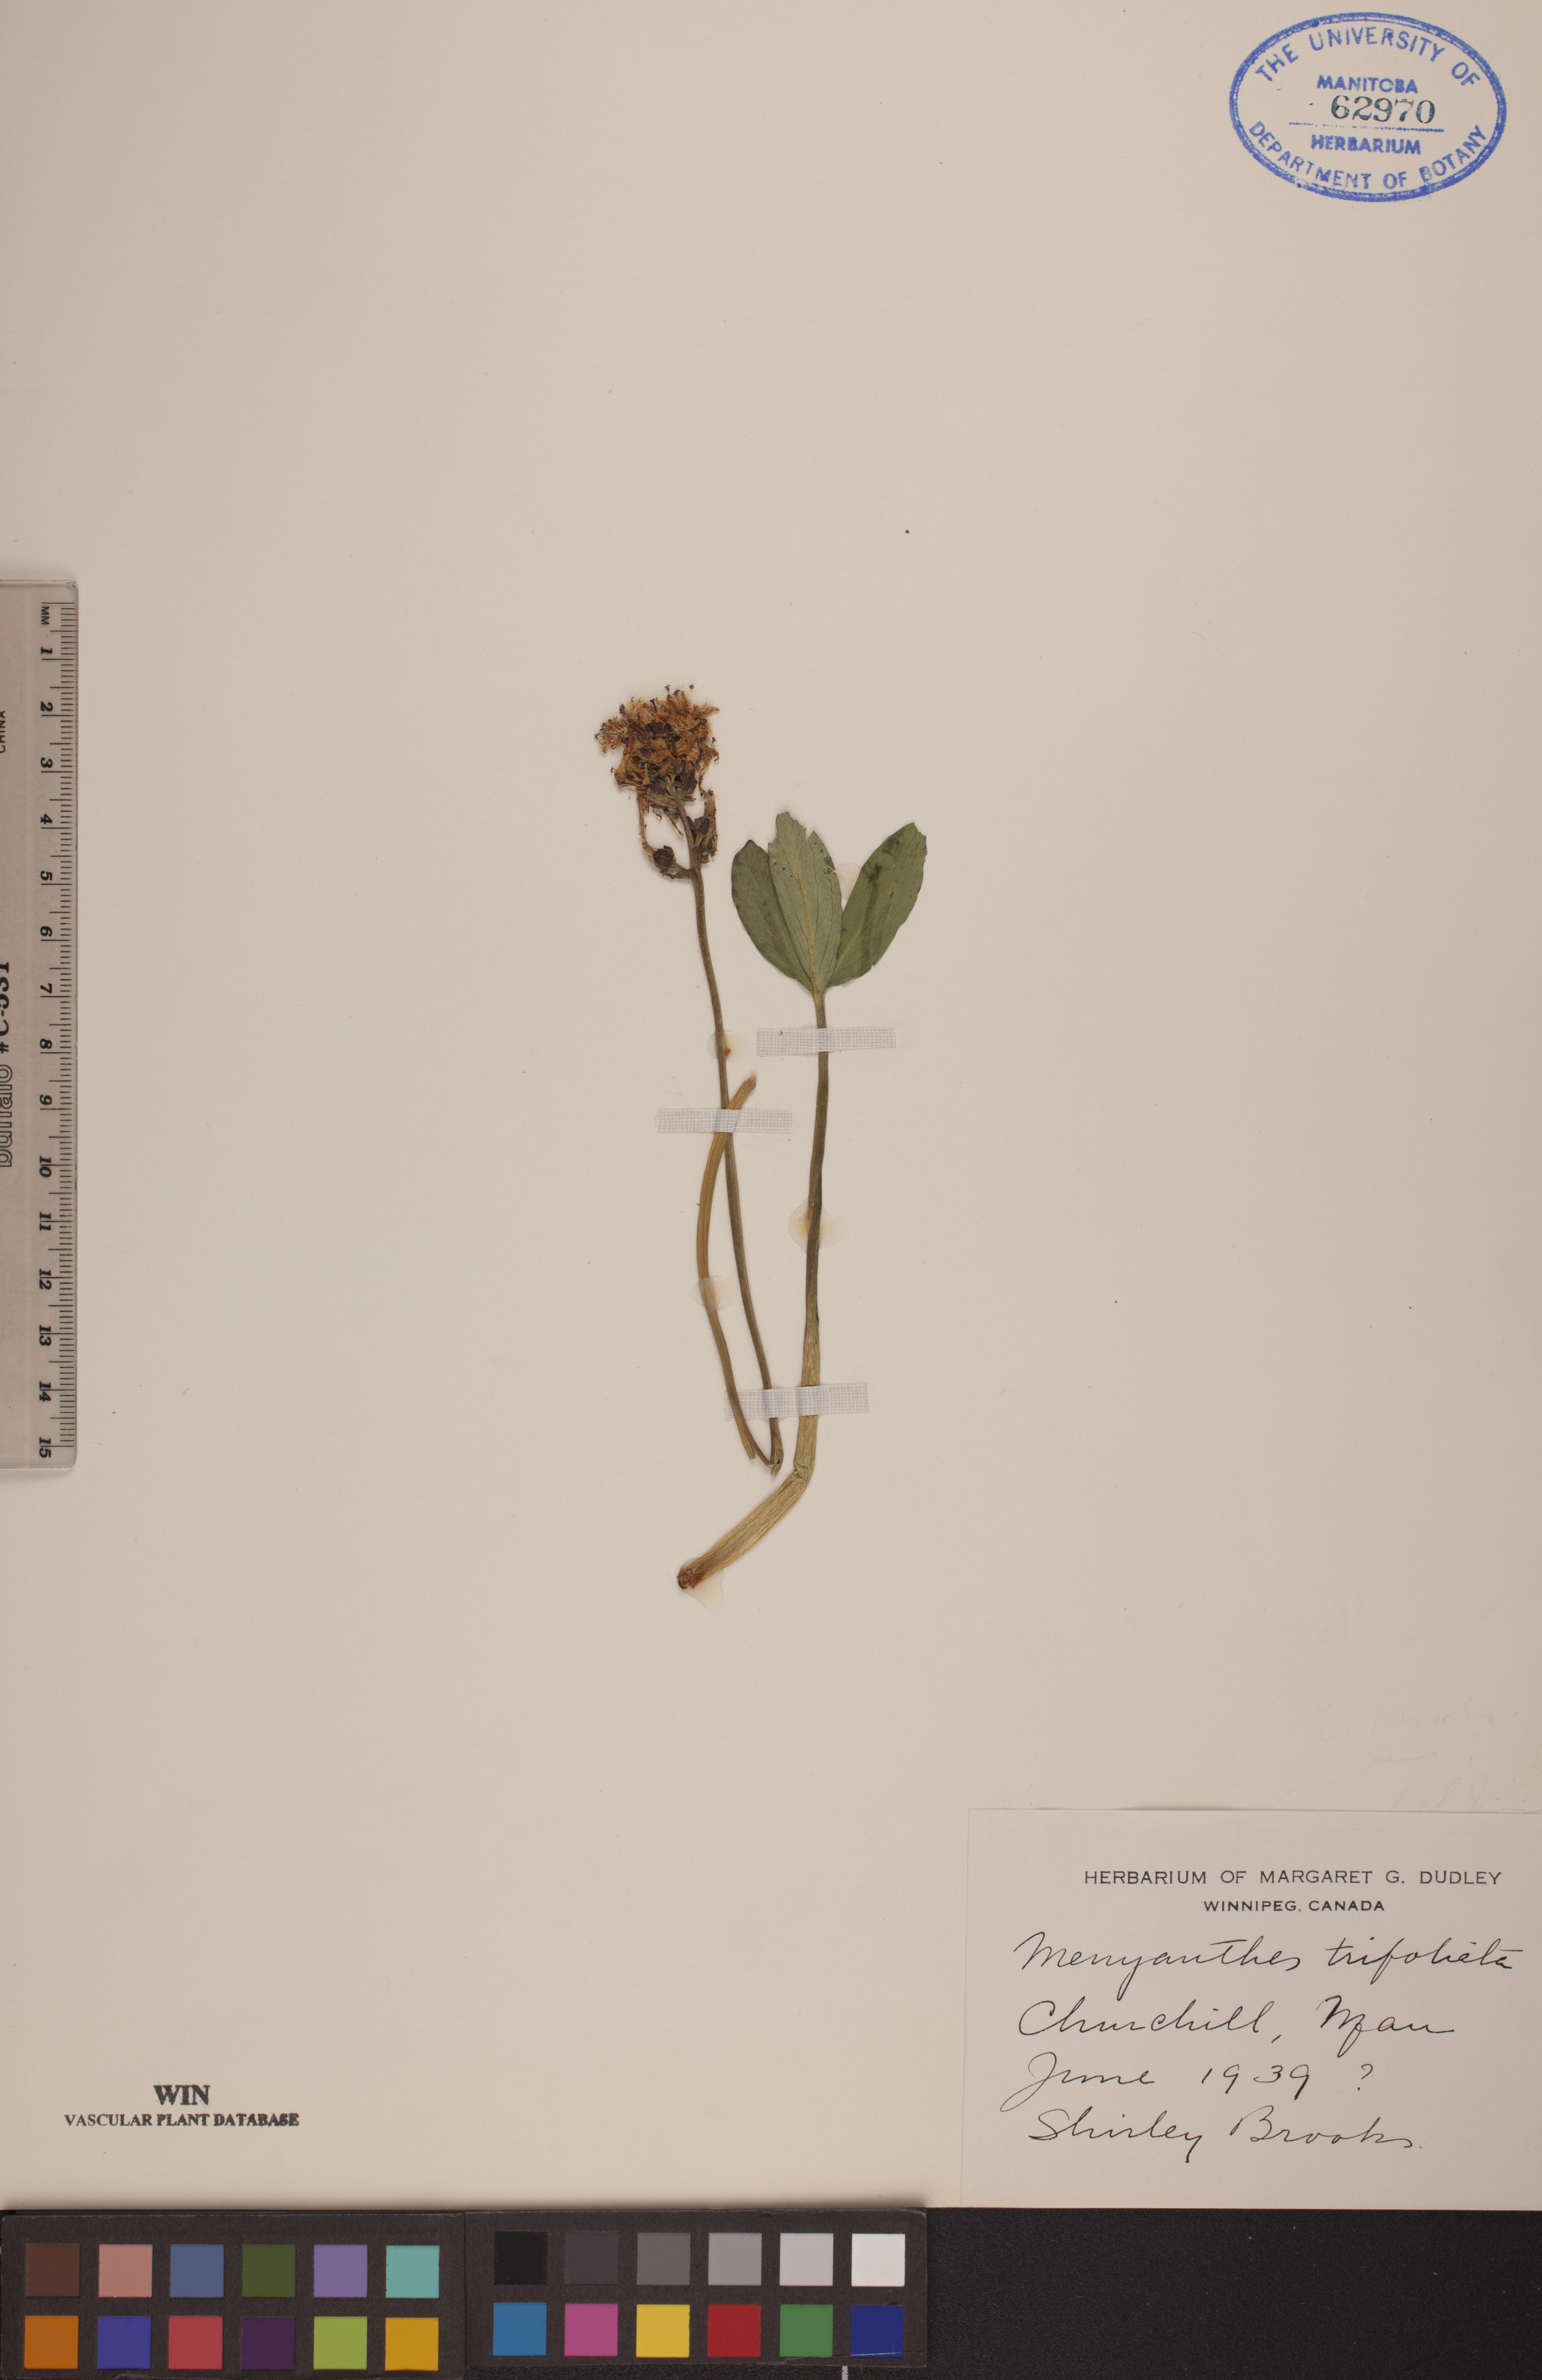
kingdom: Plantae
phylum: Tracheophyta
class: Magnoliopsida
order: Asterales
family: Menyanthaceae
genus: Menyanthes
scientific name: Menyanthes trifoliata
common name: Bogbean
